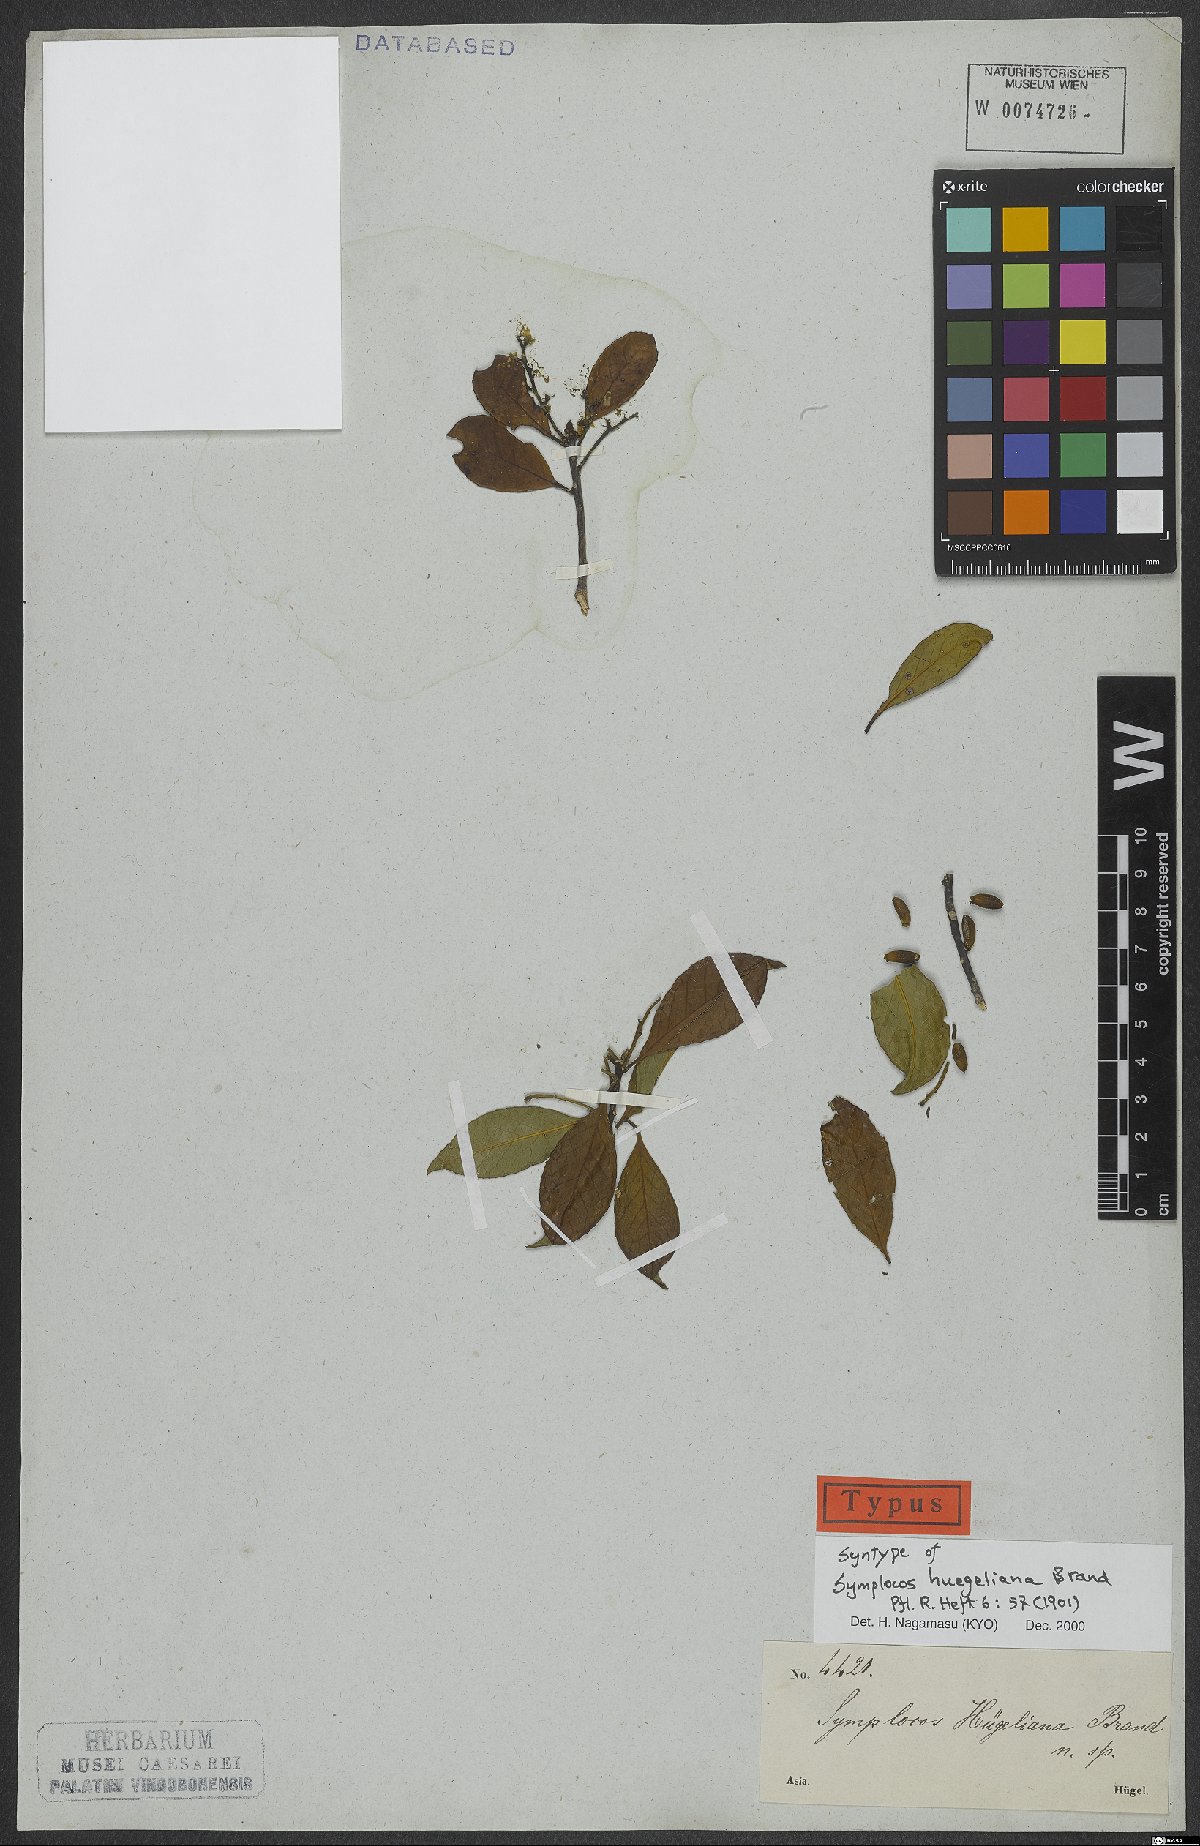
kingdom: Plantae
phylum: Tracheophyta
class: Magnoliopsida
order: Ericales
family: Symplocaceae
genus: Symplocos
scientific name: Symplocos huegeliana
